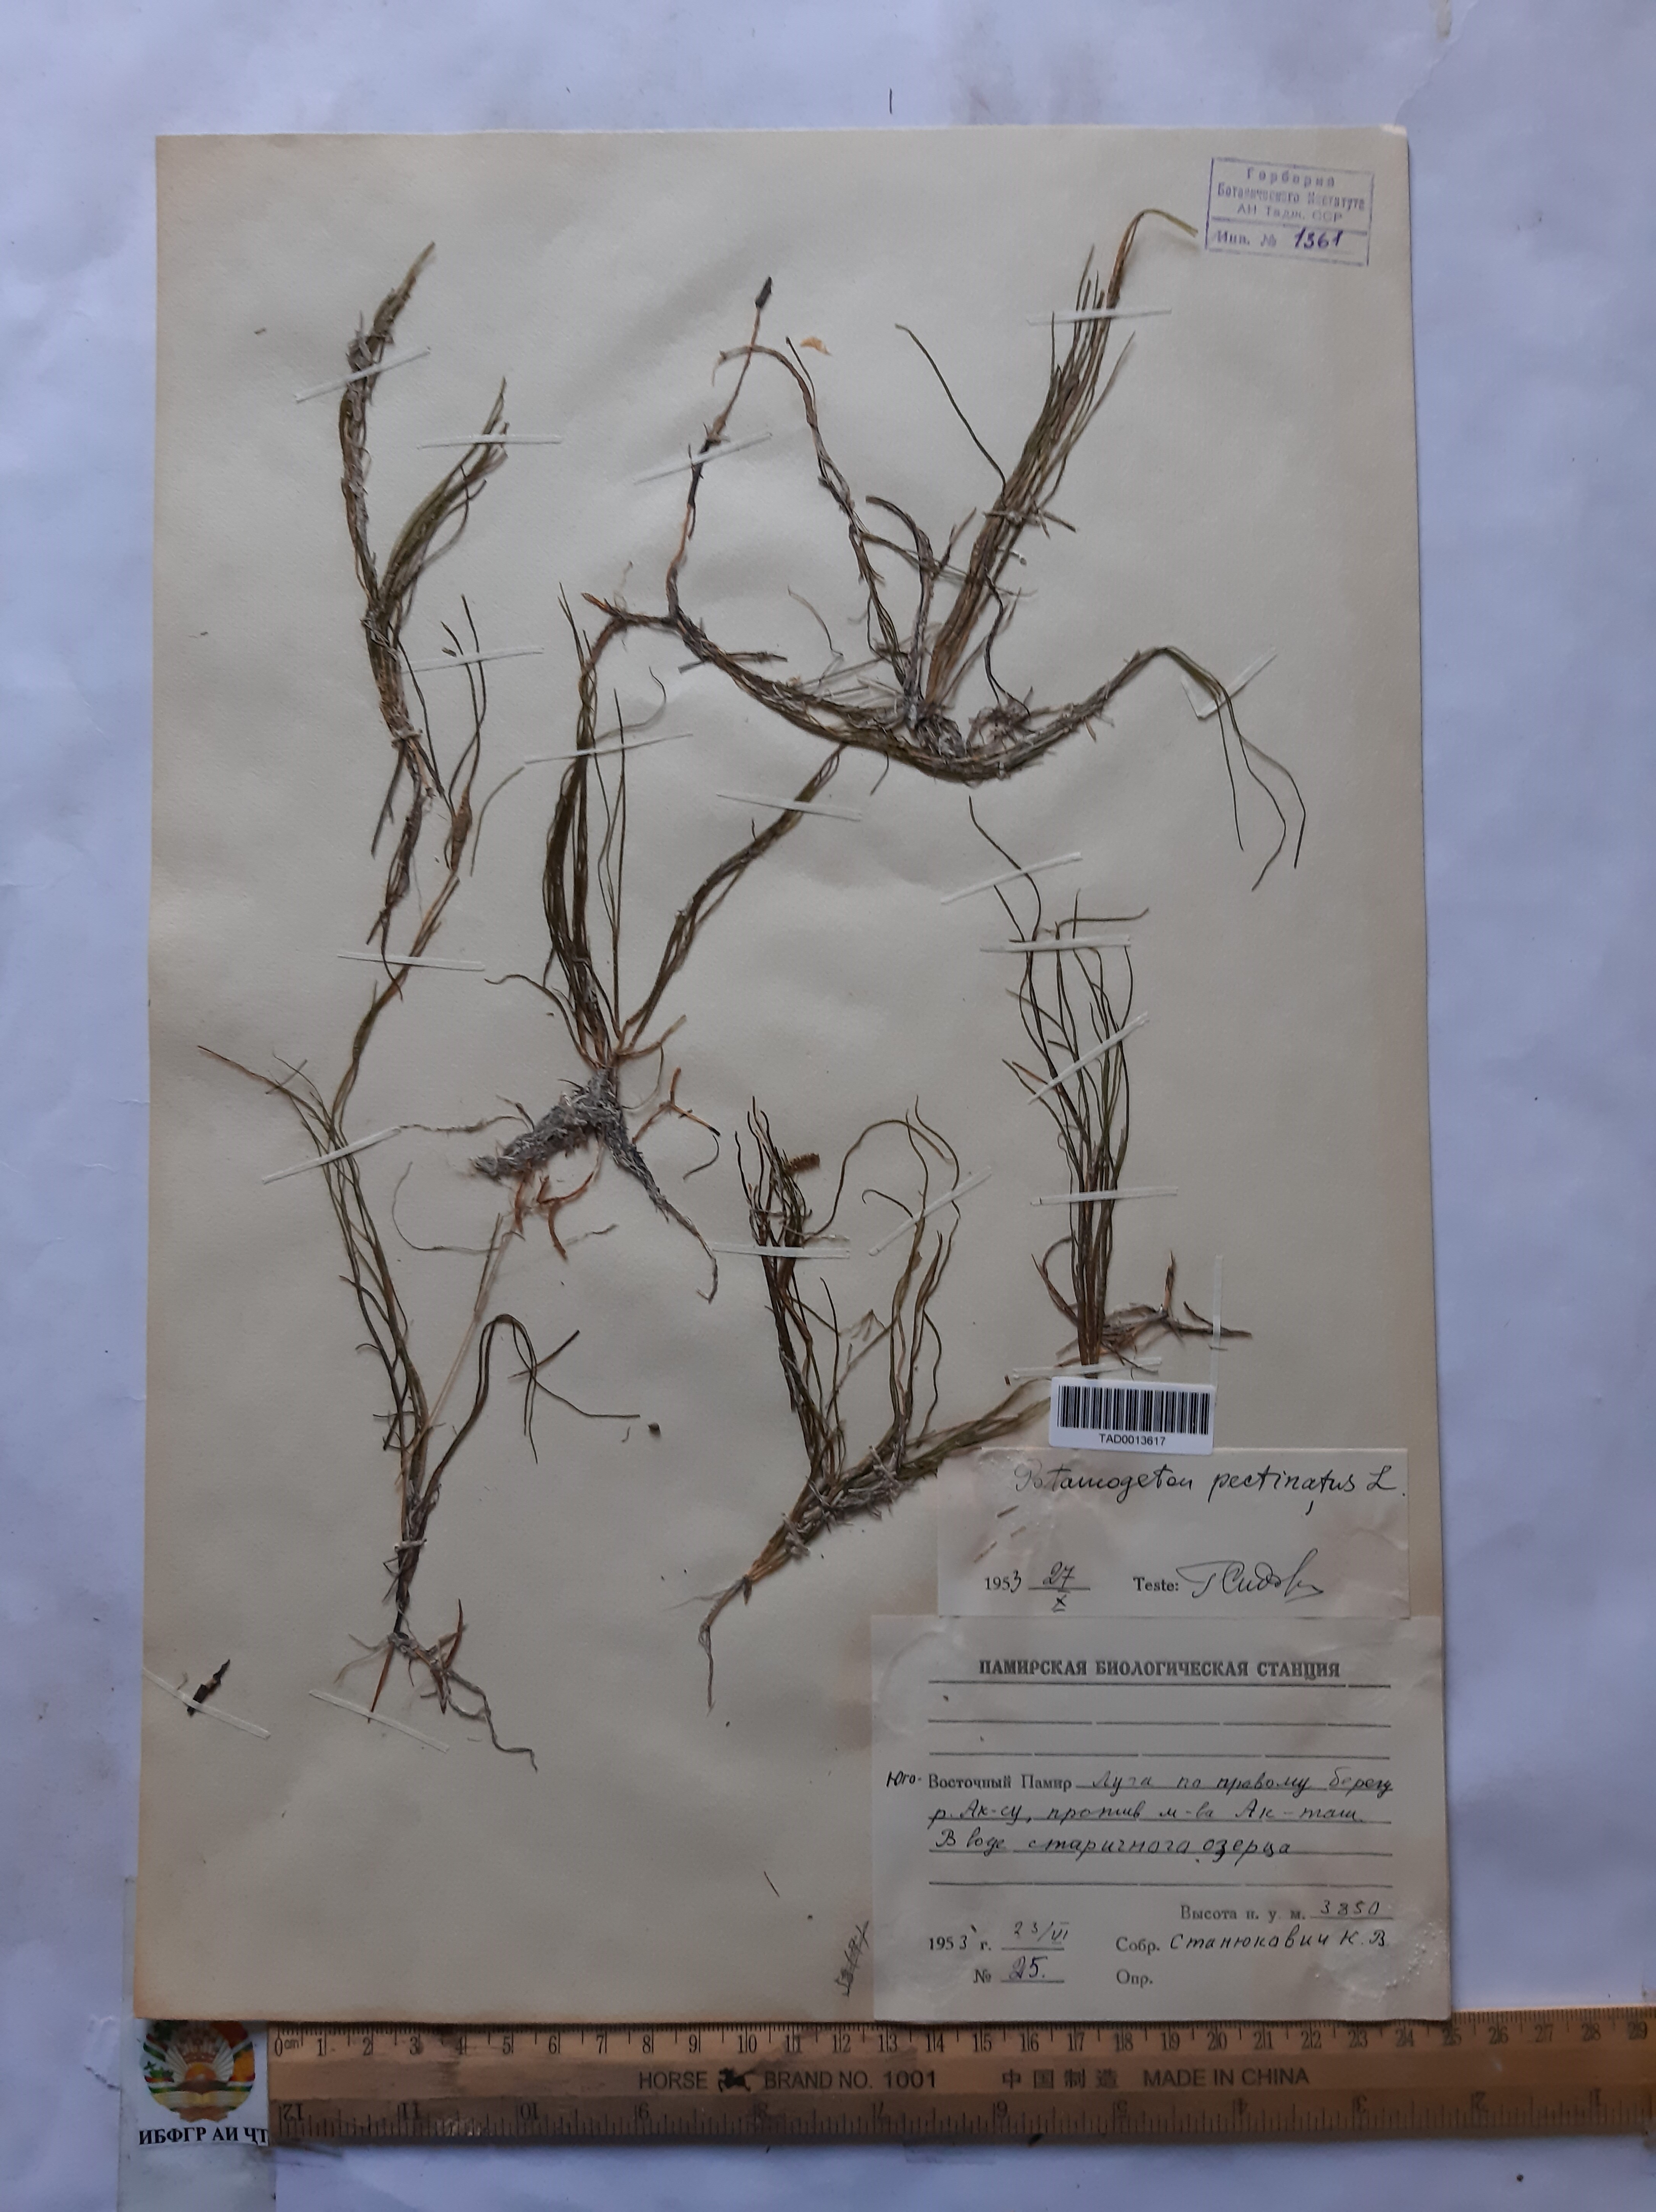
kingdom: Plantae
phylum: Tracheophyta
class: Liliopsida
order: Alismatales
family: Potamogetonaceae
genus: Stuckenia
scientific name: Stuckenia pectinata
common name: Sago pondweed
